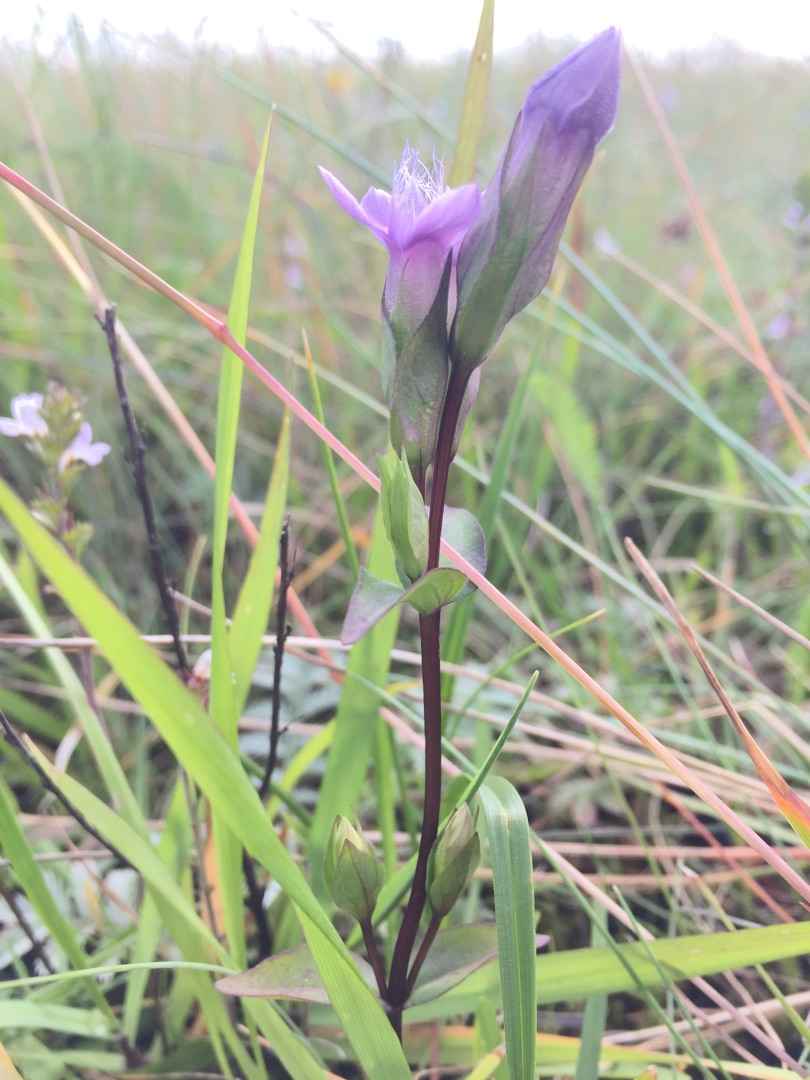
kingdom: Plantae
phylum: Tracheophyta
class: Magnoliopsida
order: Gentianales
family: Gentianaceae
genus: Gentianella
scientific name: Gentianella campestris
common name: Bredbægret ensian
